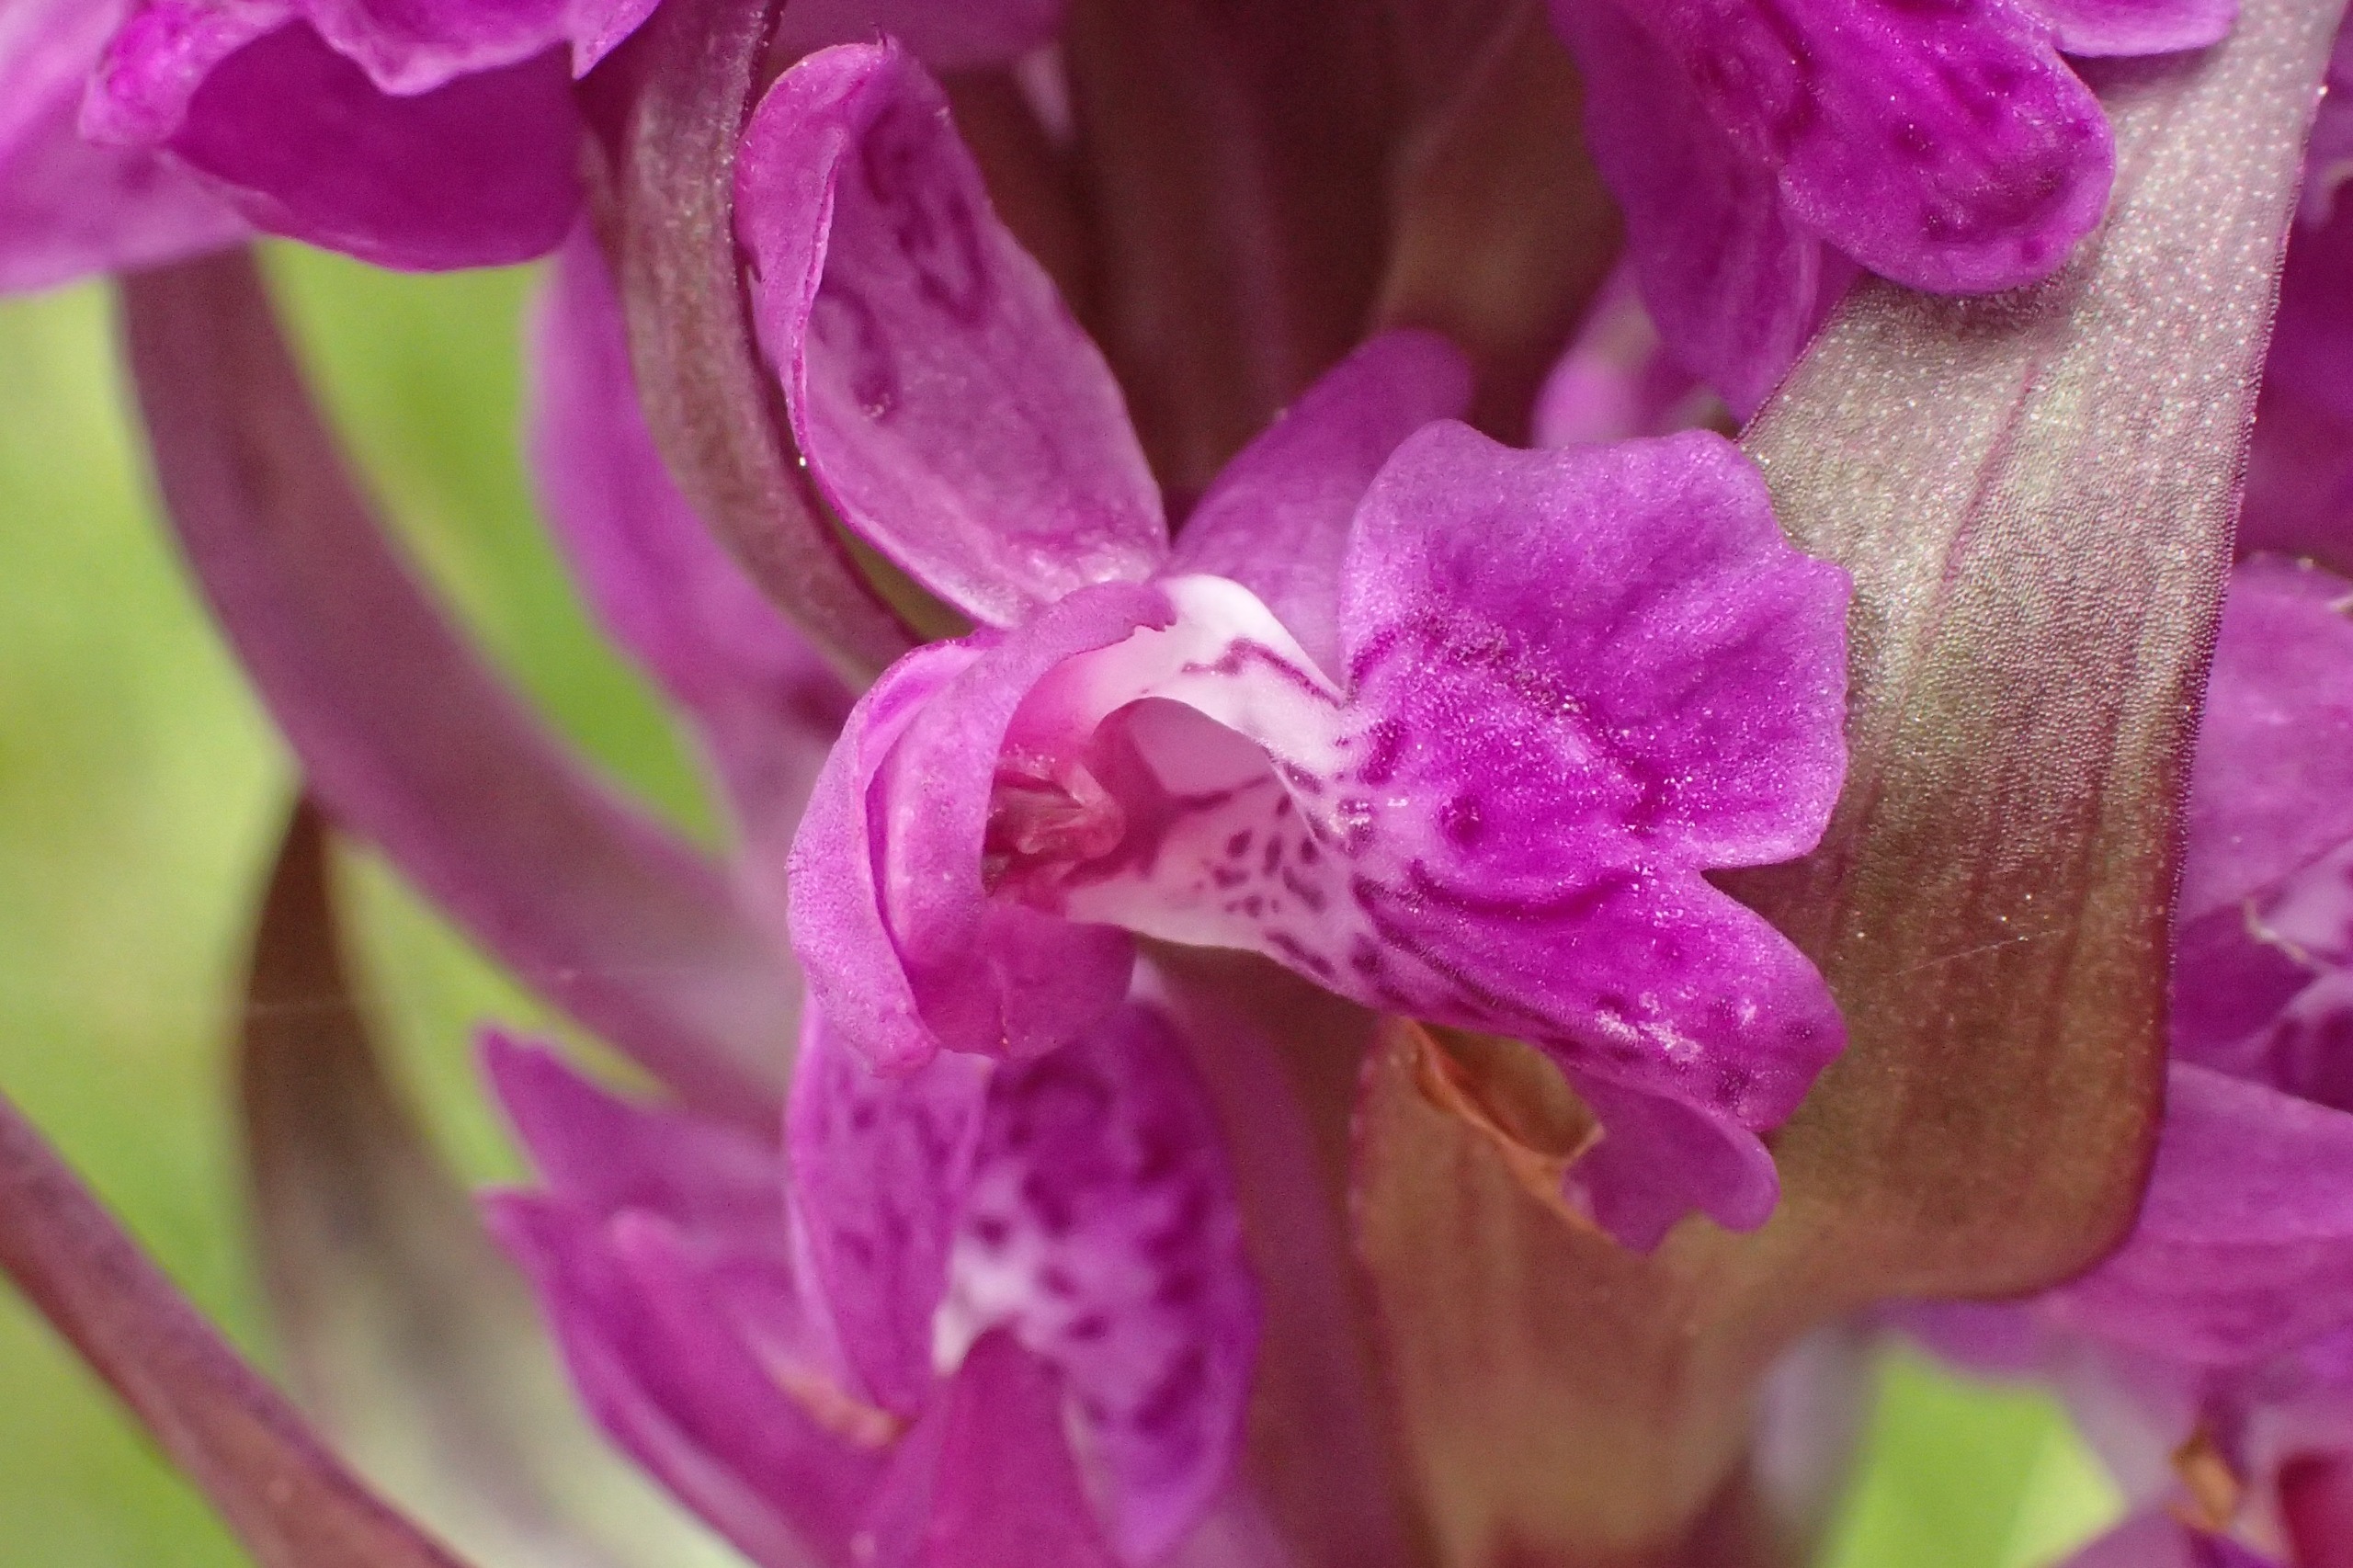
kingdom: Plantae
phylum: Tracheophyta
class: Liliopsida
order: Asparagales
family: Orchidaceae
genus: Dactylorhiza
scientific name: Dactylorhiza majalis
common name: Maj-gøgeurt
